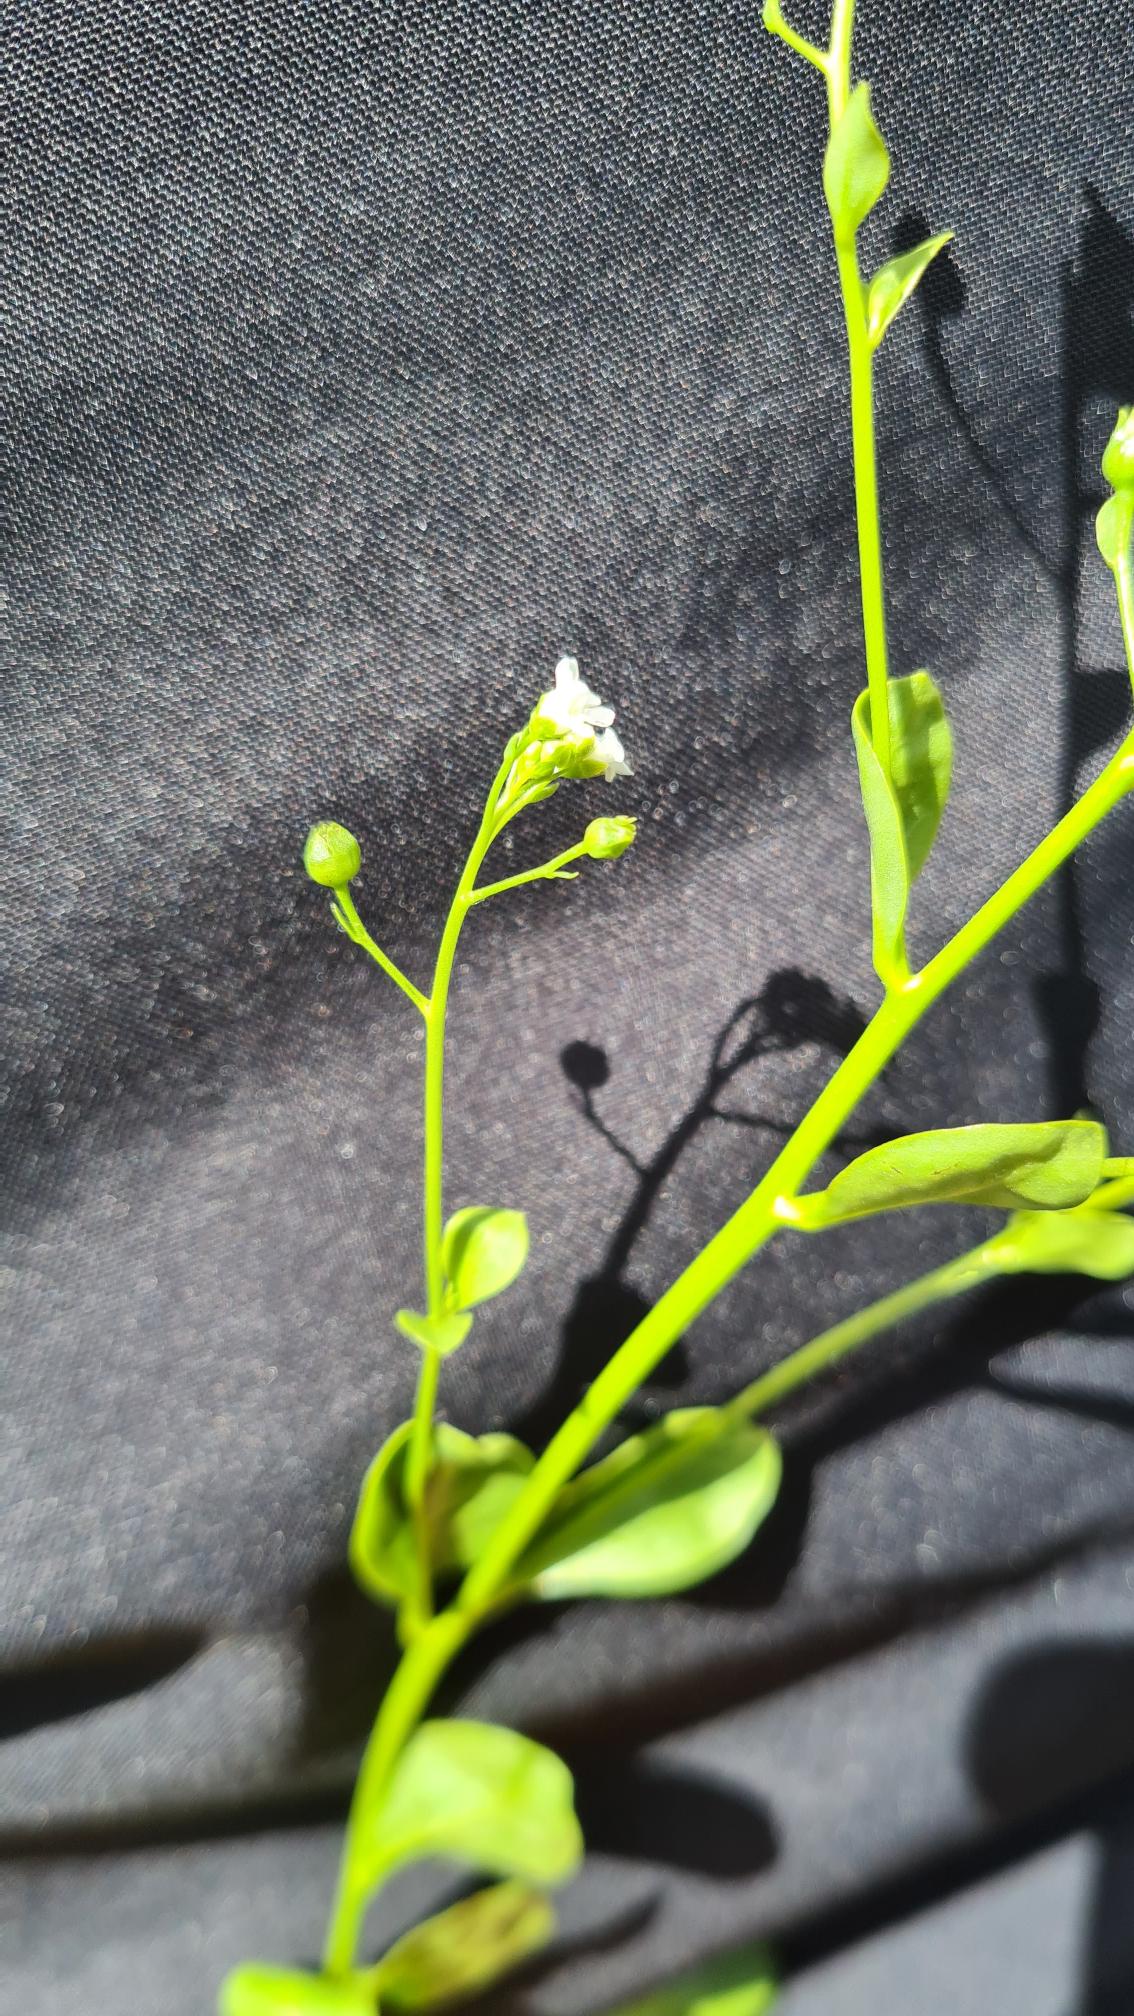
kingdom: Plantae
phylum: Tracheophyta
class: Magnoliopsida
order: Ericales
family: Primulaceae
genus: Samolus
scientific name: Samolus valerandi
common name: Samel
